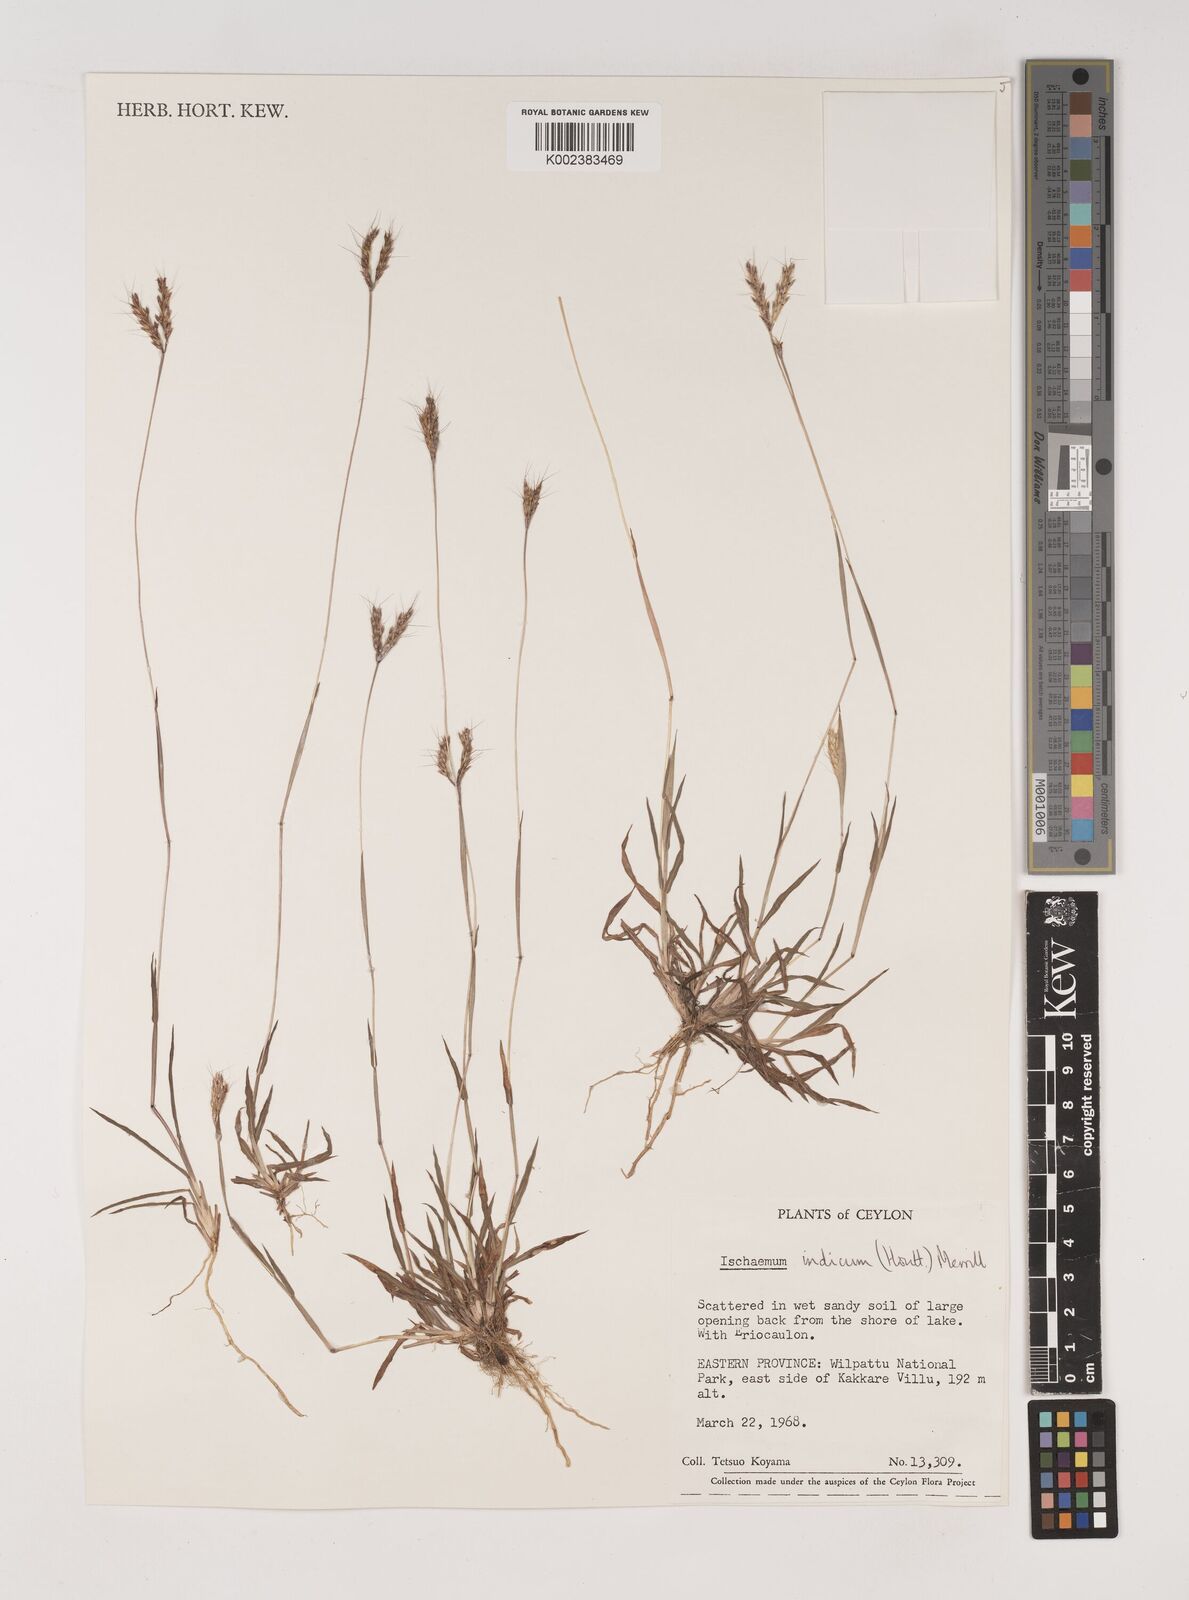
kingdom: Plantae
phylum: Tracheophyta
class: Liliopsida
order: Poales
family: Poaceae
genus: Polytrias
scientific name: Polytrias indica
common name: Indian murainagrass
